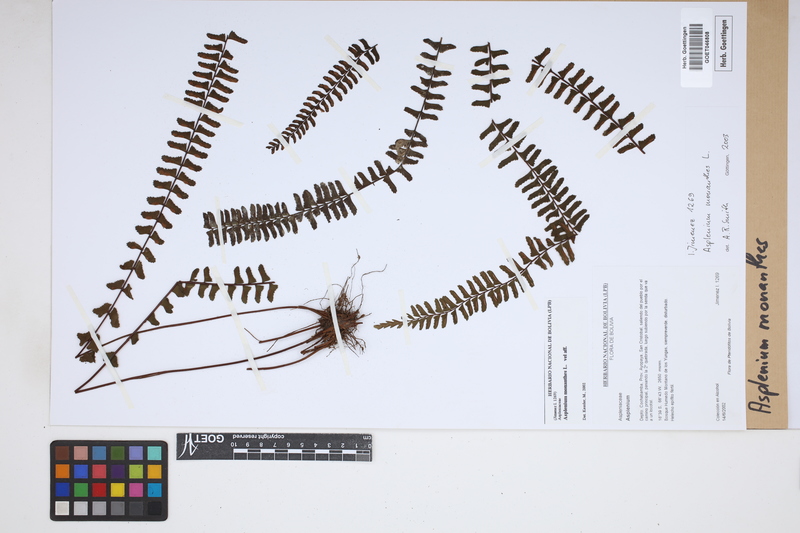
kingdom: Plantae
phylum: Tracheophyta
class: Polypodiopsida
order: Polypodiales
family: Aspleniaceae
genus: Asplenium
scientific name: Asplenium monanthes
